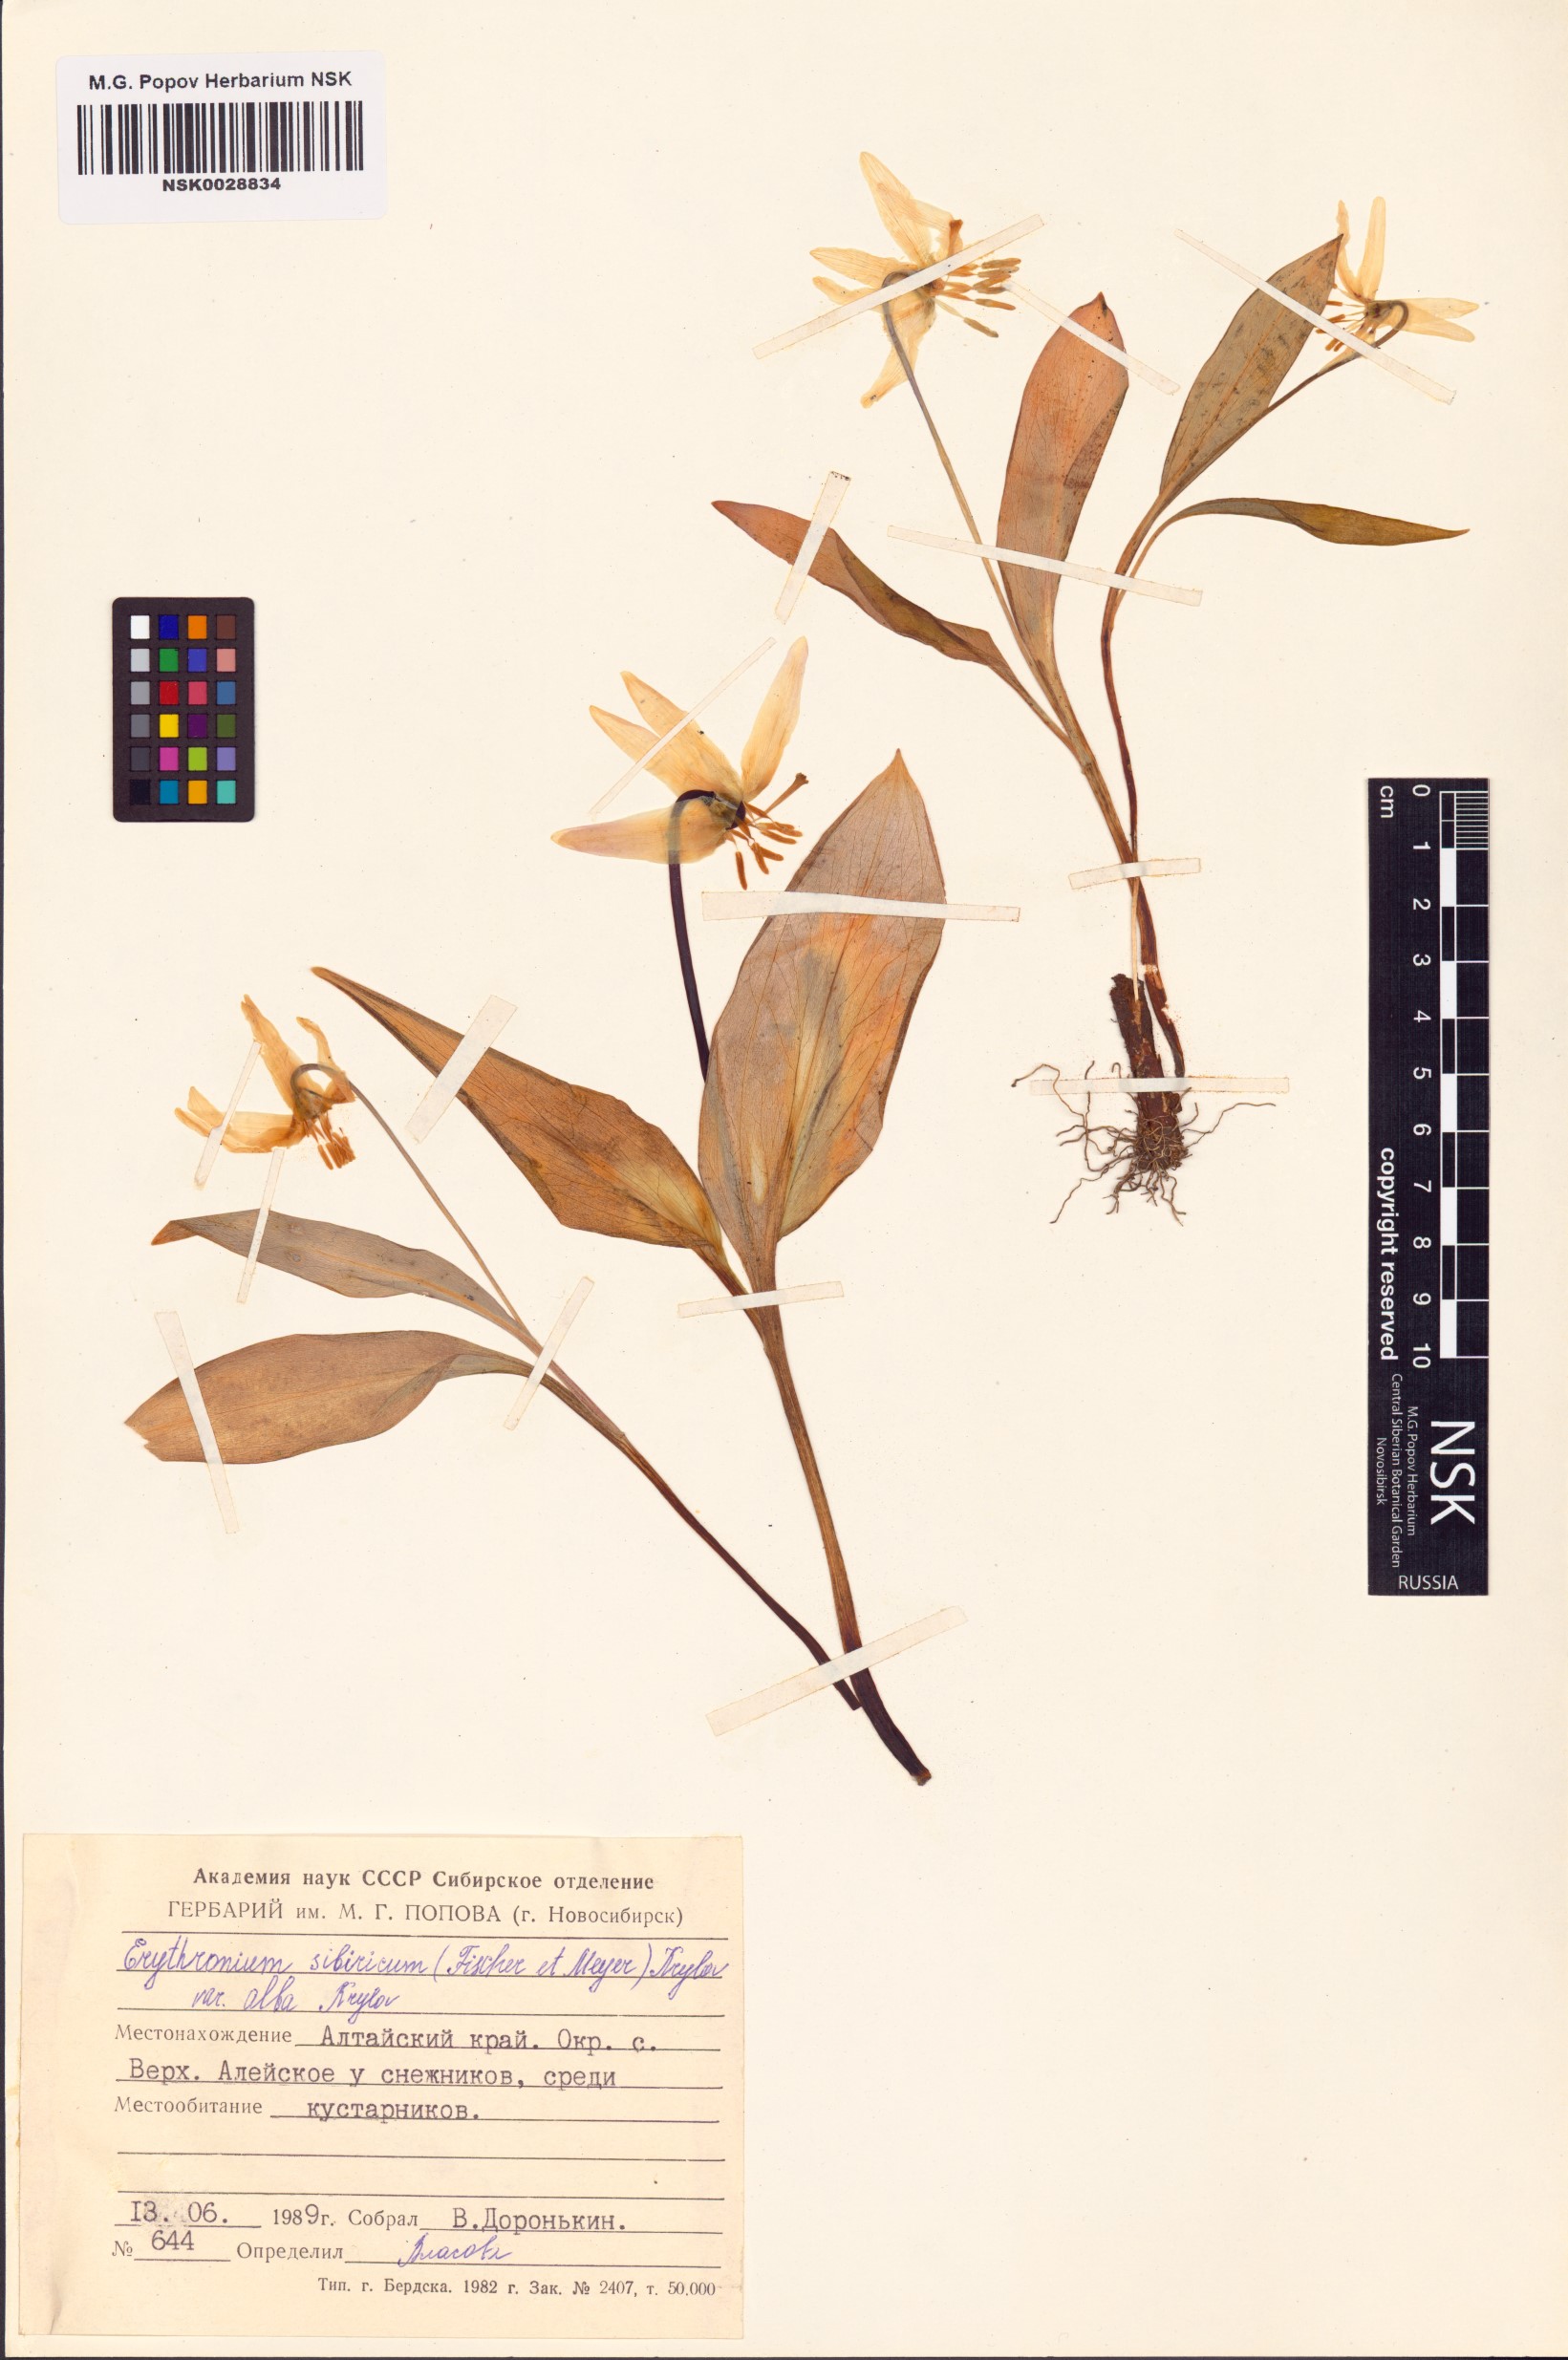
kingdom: Plantae
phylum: Tracheophyta
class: Liliopsida
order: Liliales
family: Liliaceae
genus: Erythronium
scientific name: Erythronium sibiricum
